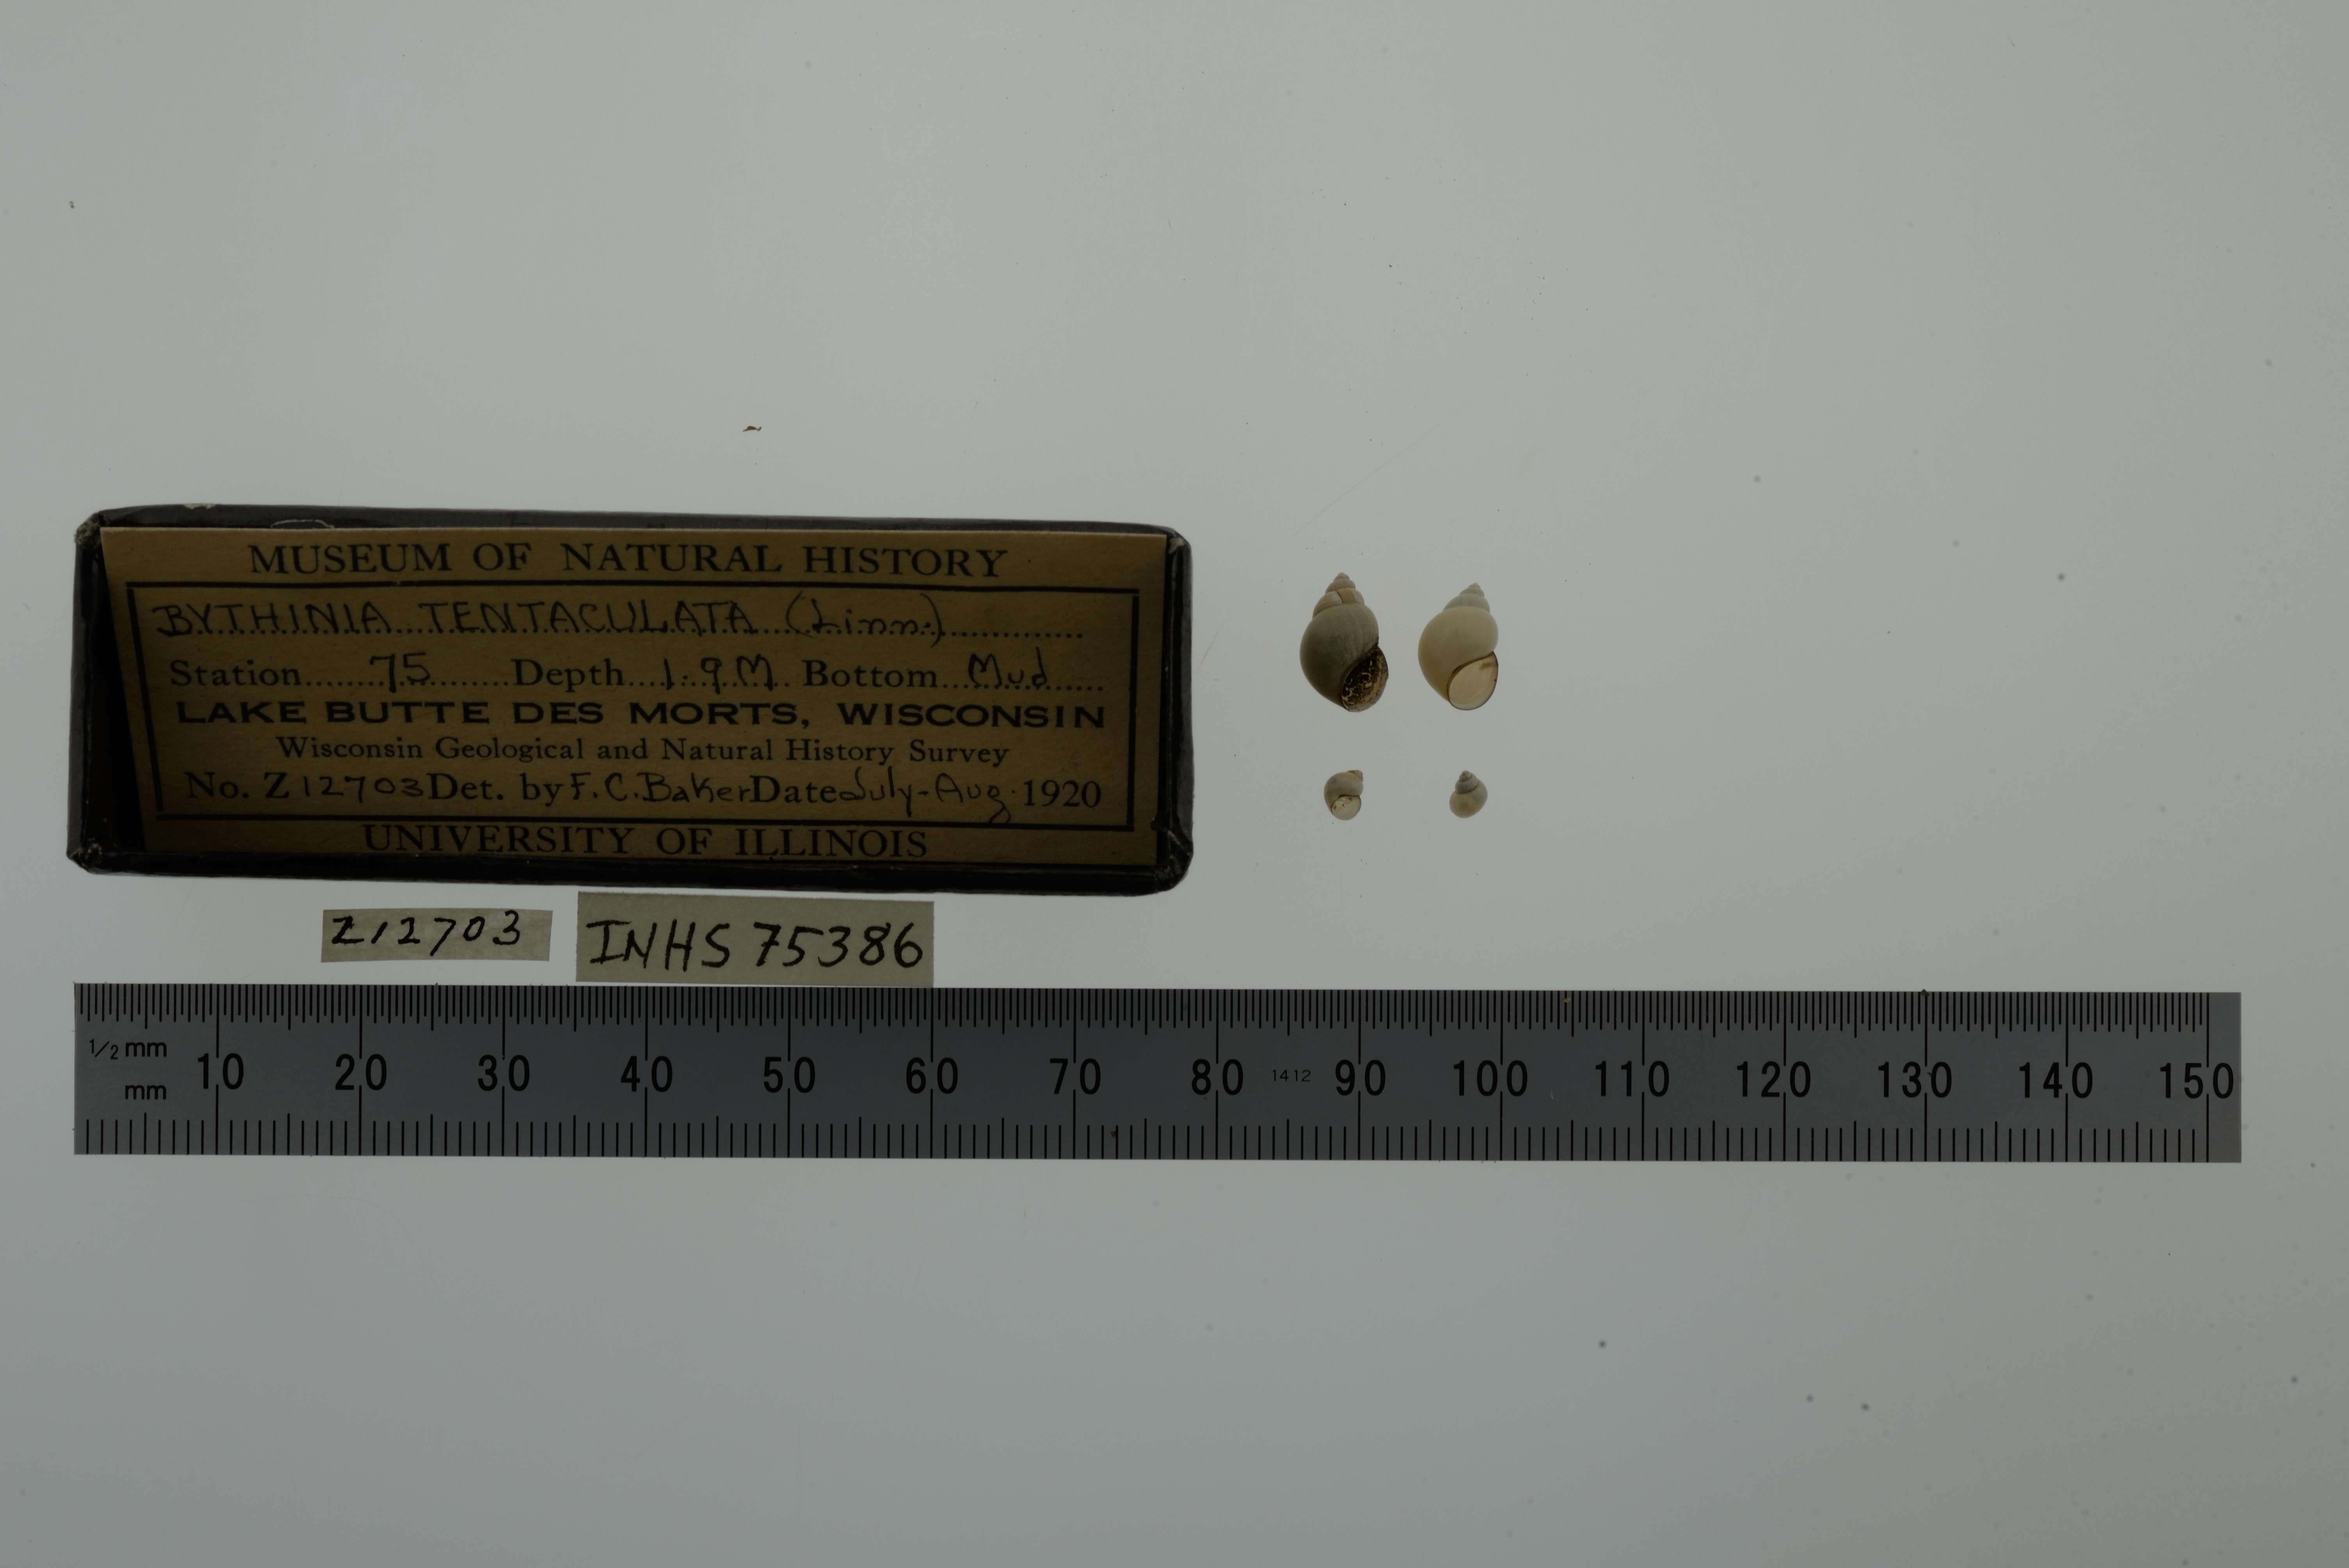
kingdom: Animalia
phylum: Mollusca
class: Gastropoda
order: Littorinimorpha
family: Bithyniidae
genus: Bithynia
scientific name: Bithynia tentaculata
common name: Common bithynia
